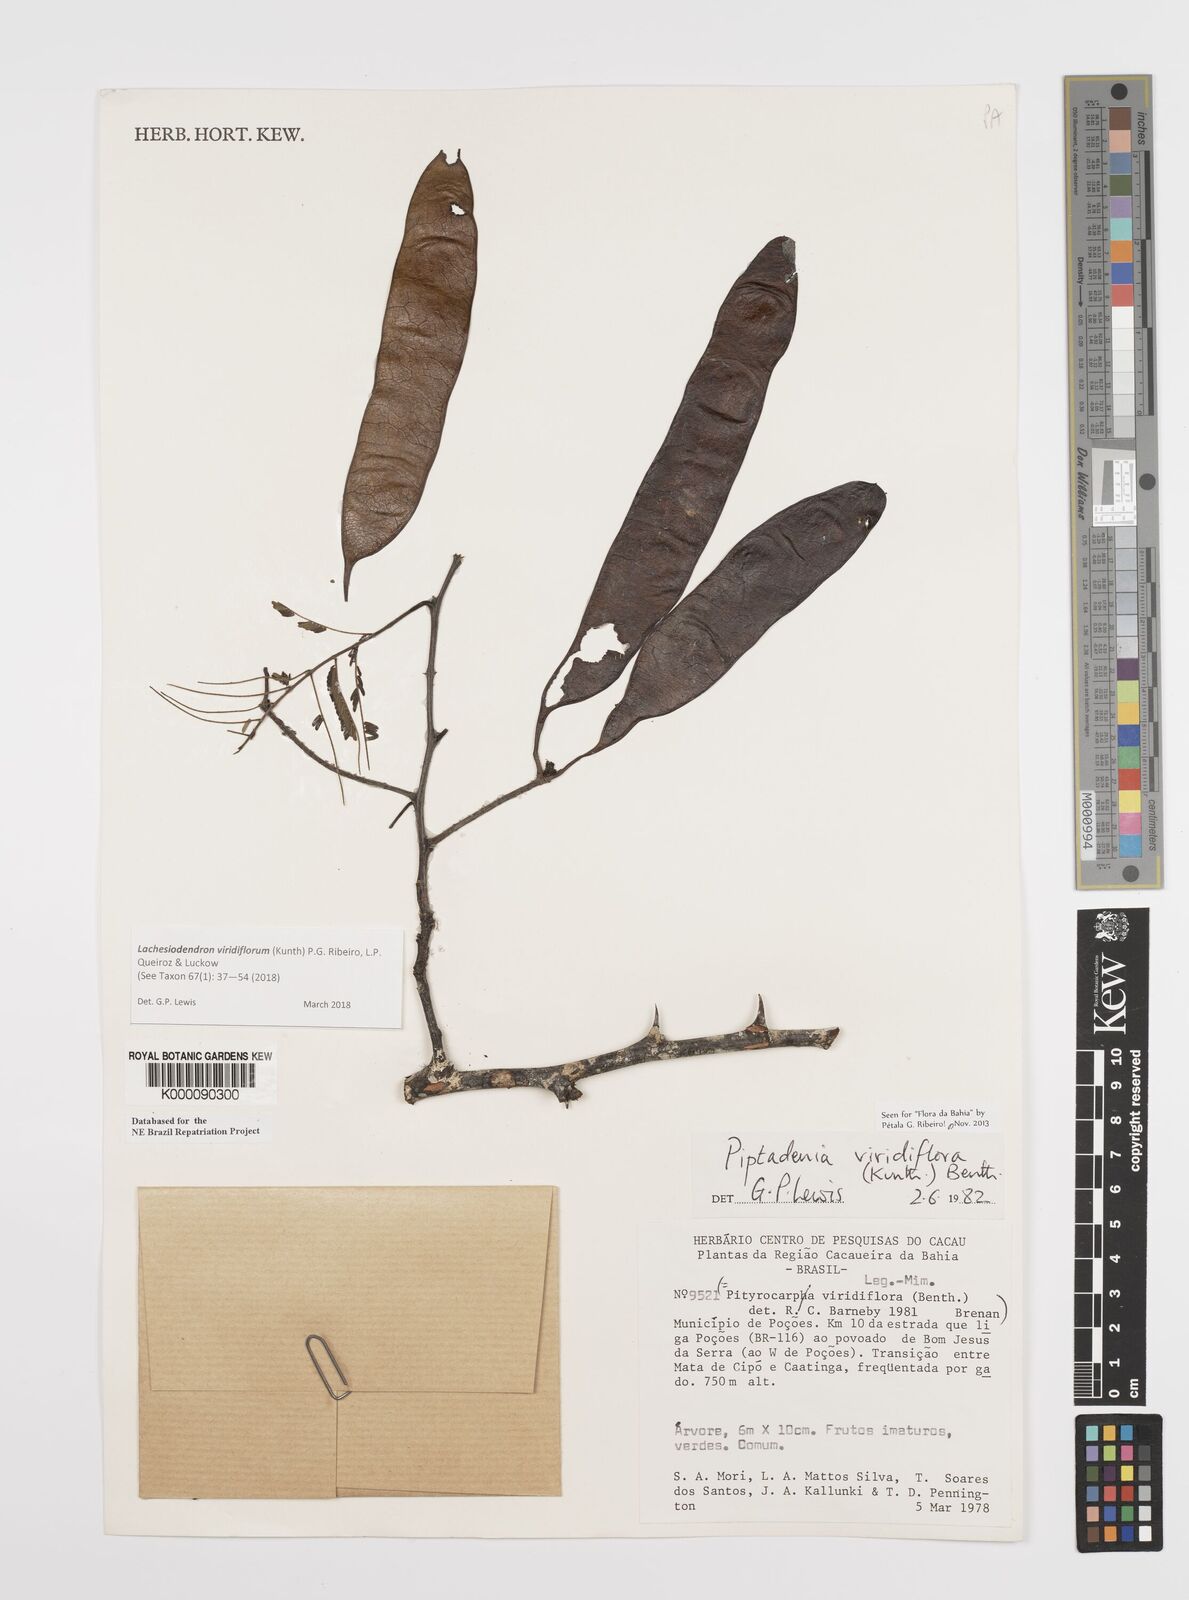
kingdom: Plantae
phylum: Tracheophyta
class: Magnoliopsida
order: Fabales
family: Fabaceae
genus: Lachesiodendron
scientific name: Lachesiodendron viridiflorum
